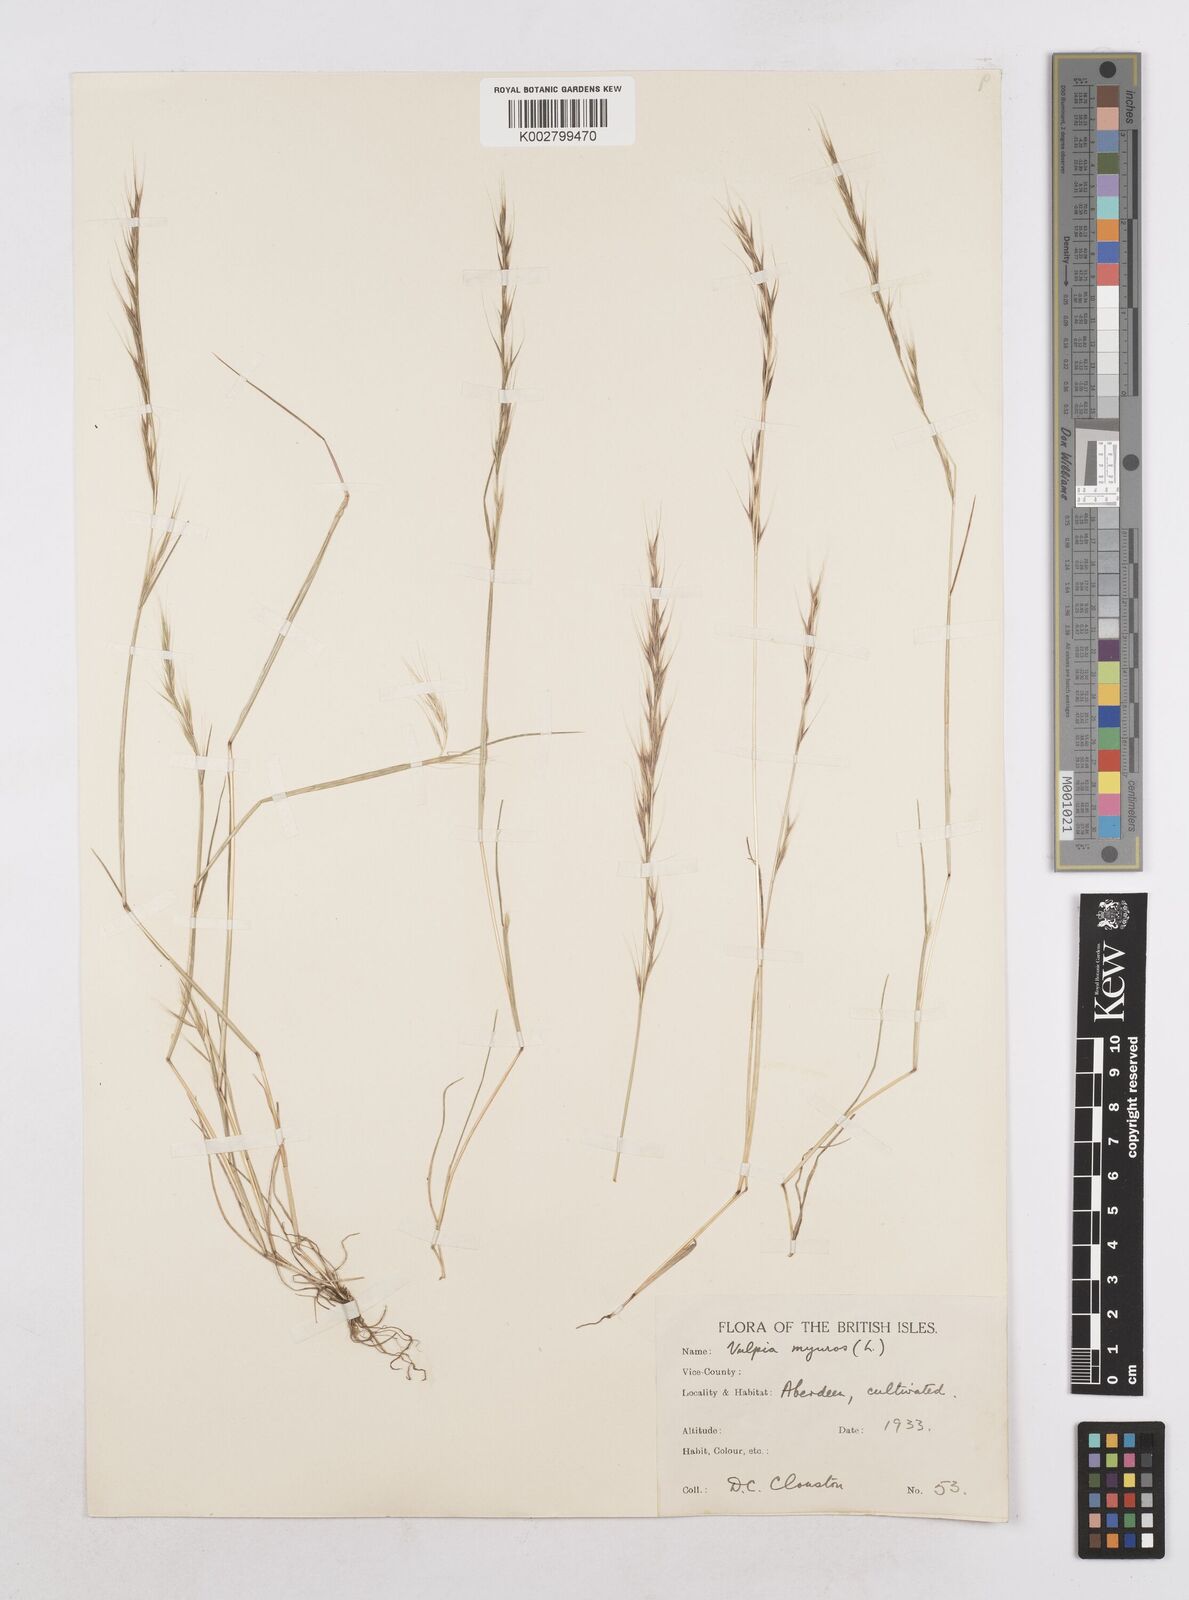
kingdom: Plantae
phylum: Tracheophyta
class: Liliopsida
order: Poales
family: Poaceae
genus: Festuca
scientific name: Festuca myuros
